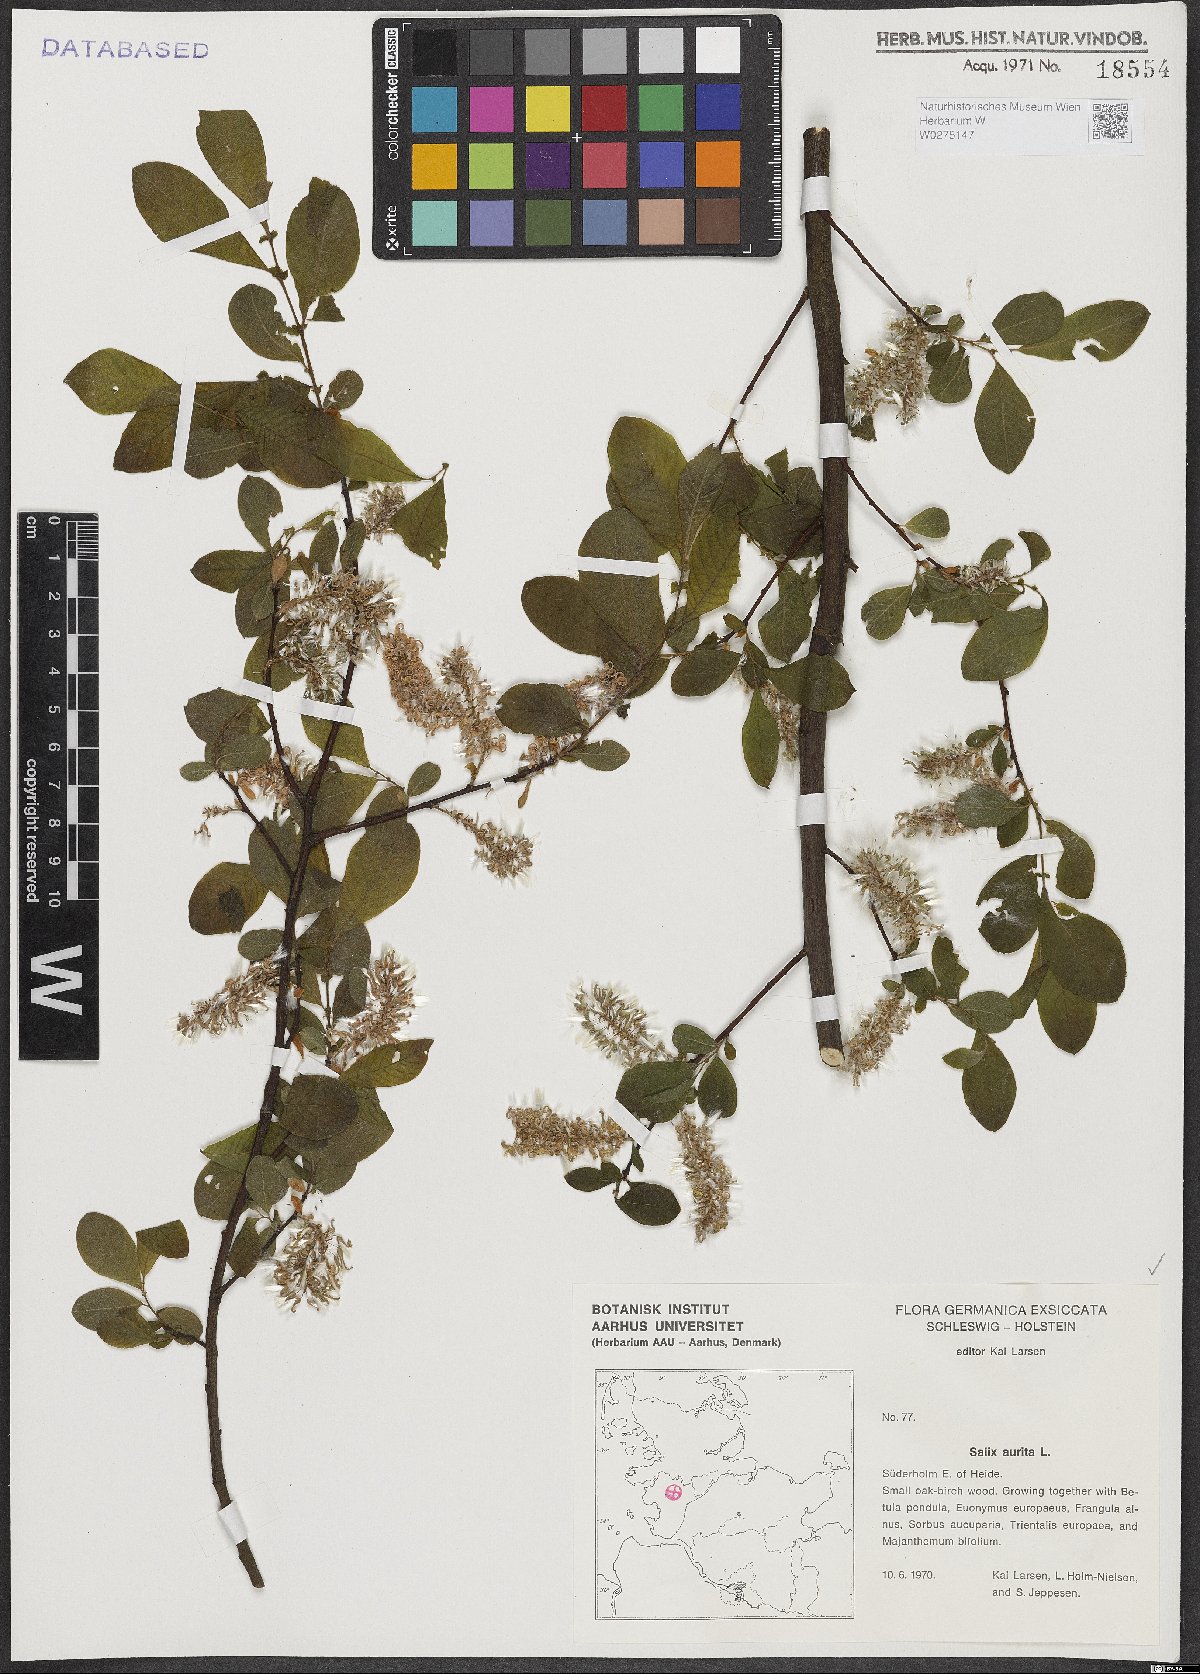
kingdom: Plantae
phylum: Tracheophyta
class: Magnoliopsida
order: Malpighiales
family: Salicaceae
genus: Salix
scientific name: Salix aurita
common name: Eared willow
